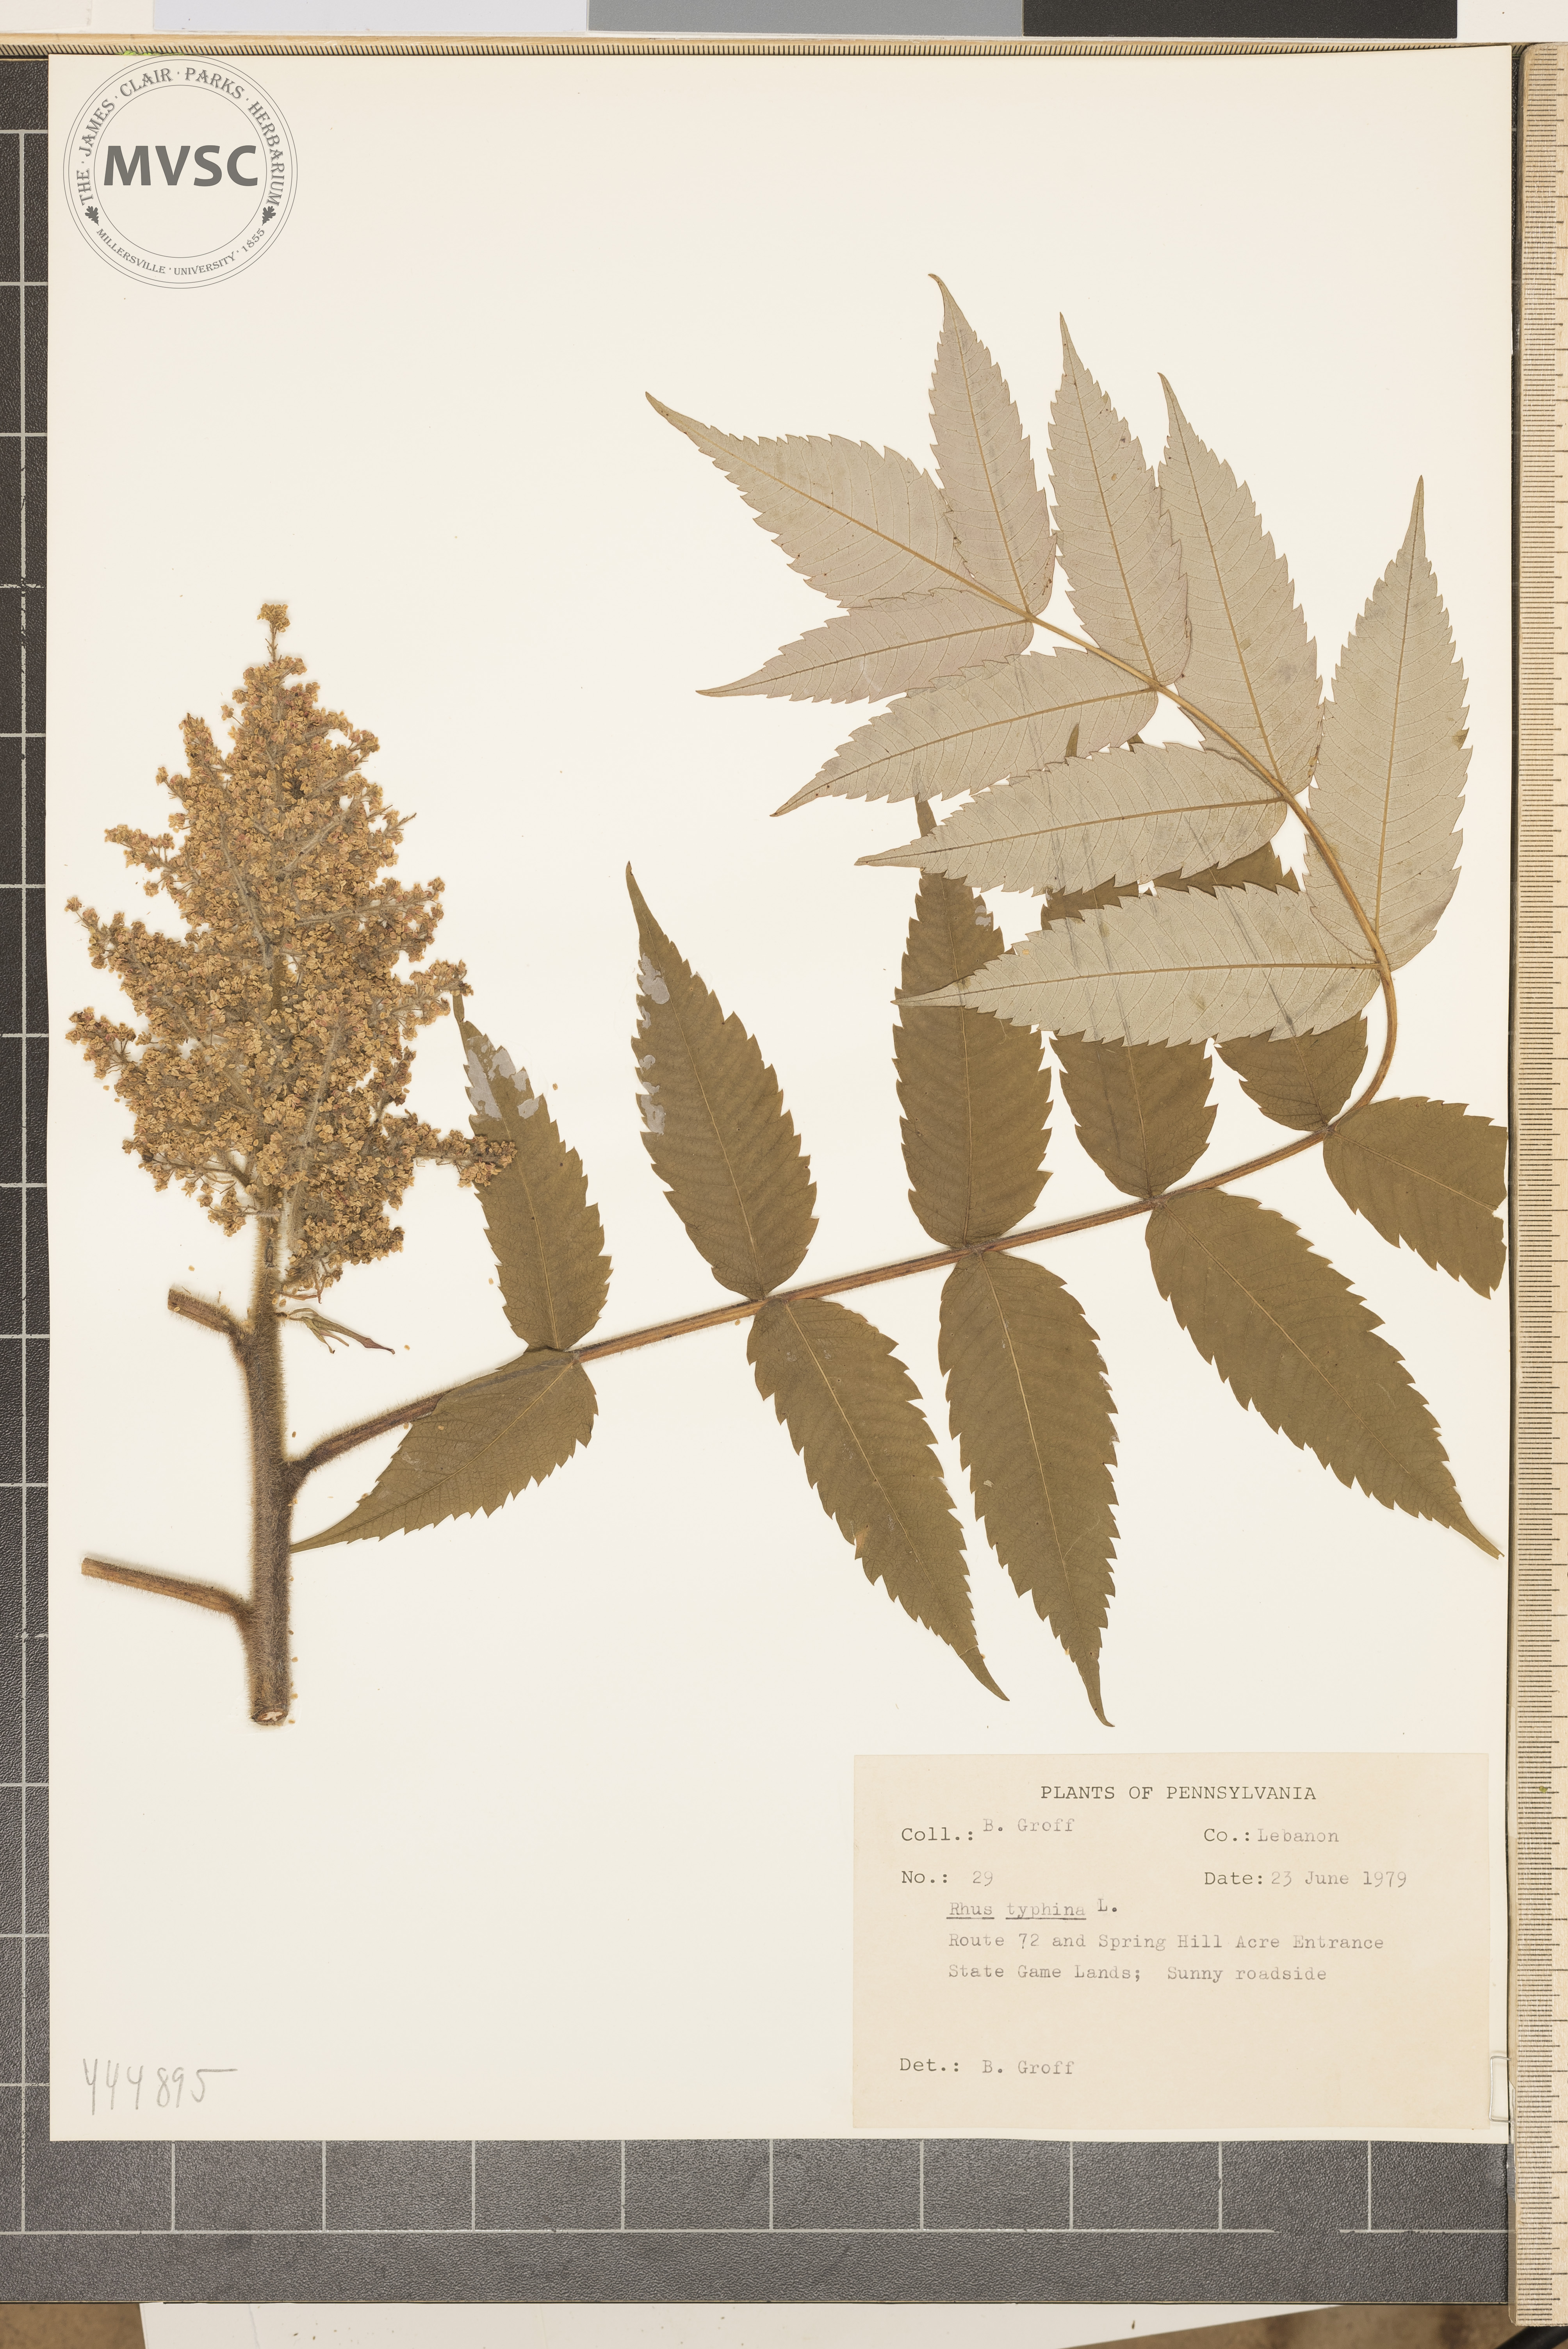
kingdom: Plantae
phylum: Tracheophyta
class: Magnoliopsida
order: Sapindales
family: Anacardiaceae
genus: Rhus
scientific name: Rhus typhina
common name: Staghorn sumac
